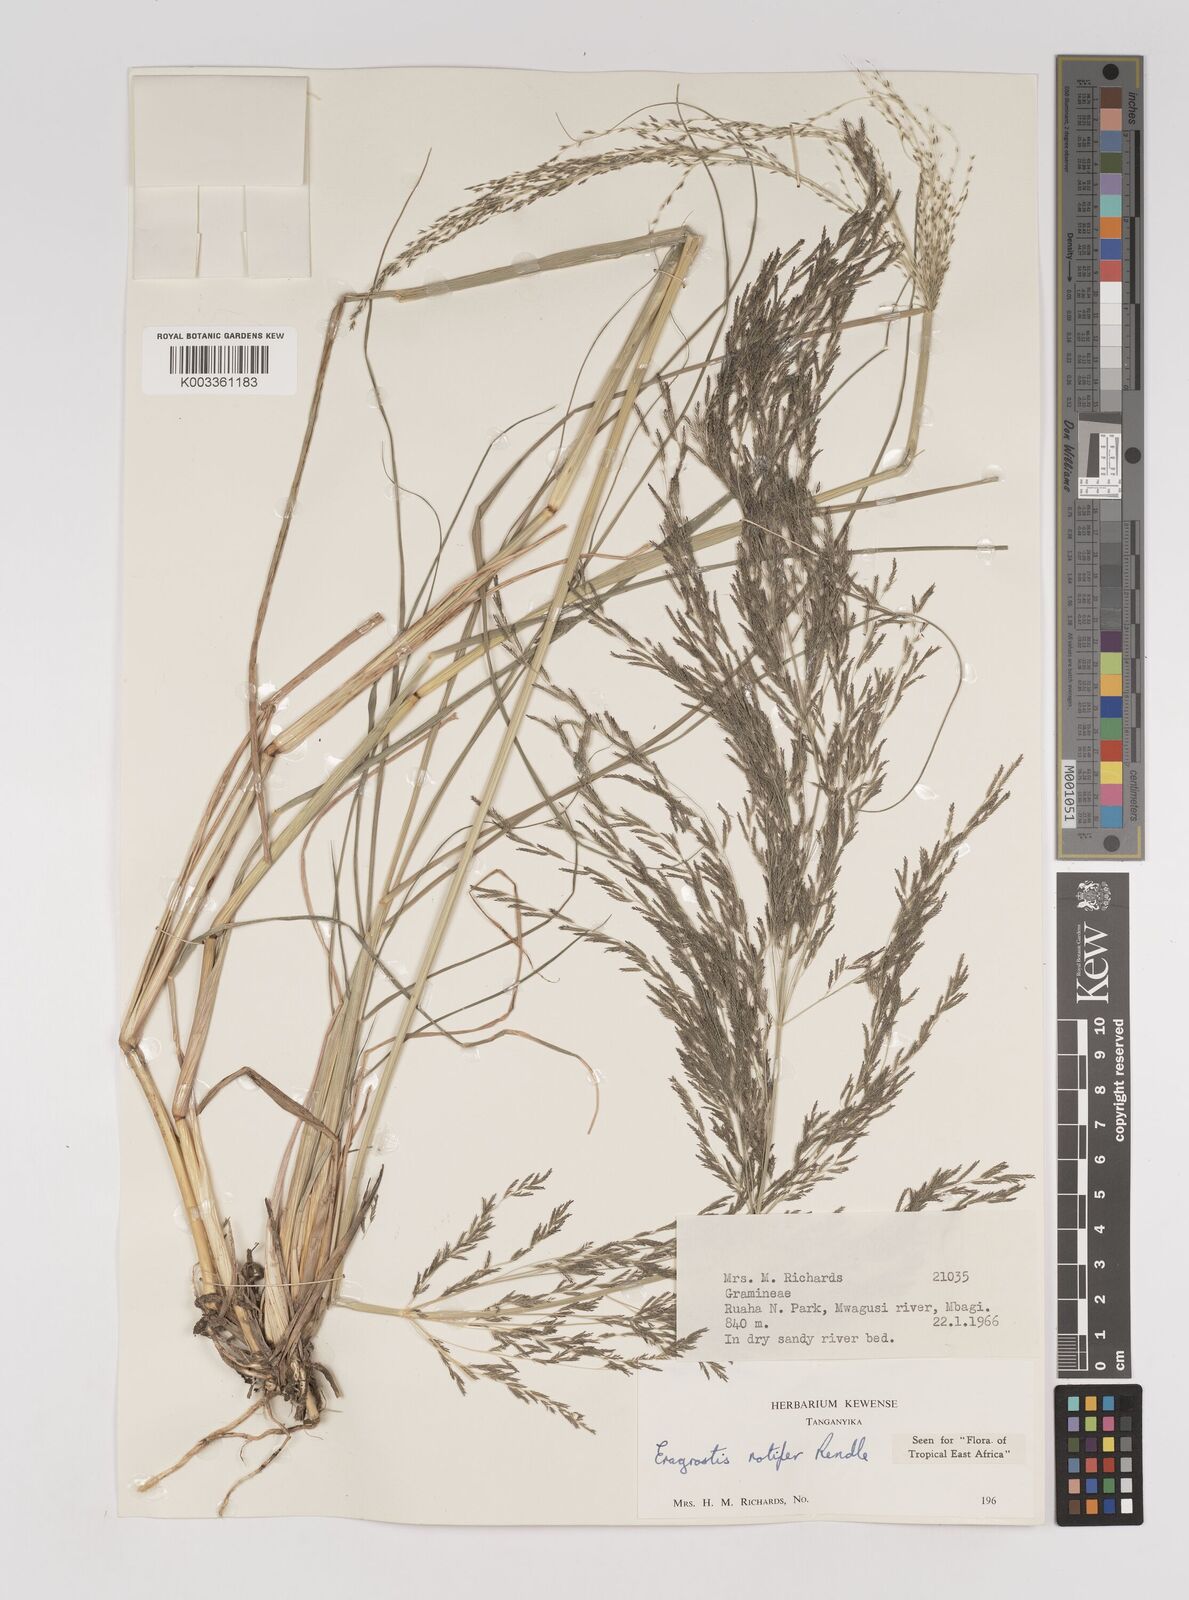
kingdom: Plantae
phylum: Tracheophyta
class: Liliopsida
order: Poales
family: Poaceae
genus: Eragrostis
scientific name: Eragrostis rotifer
